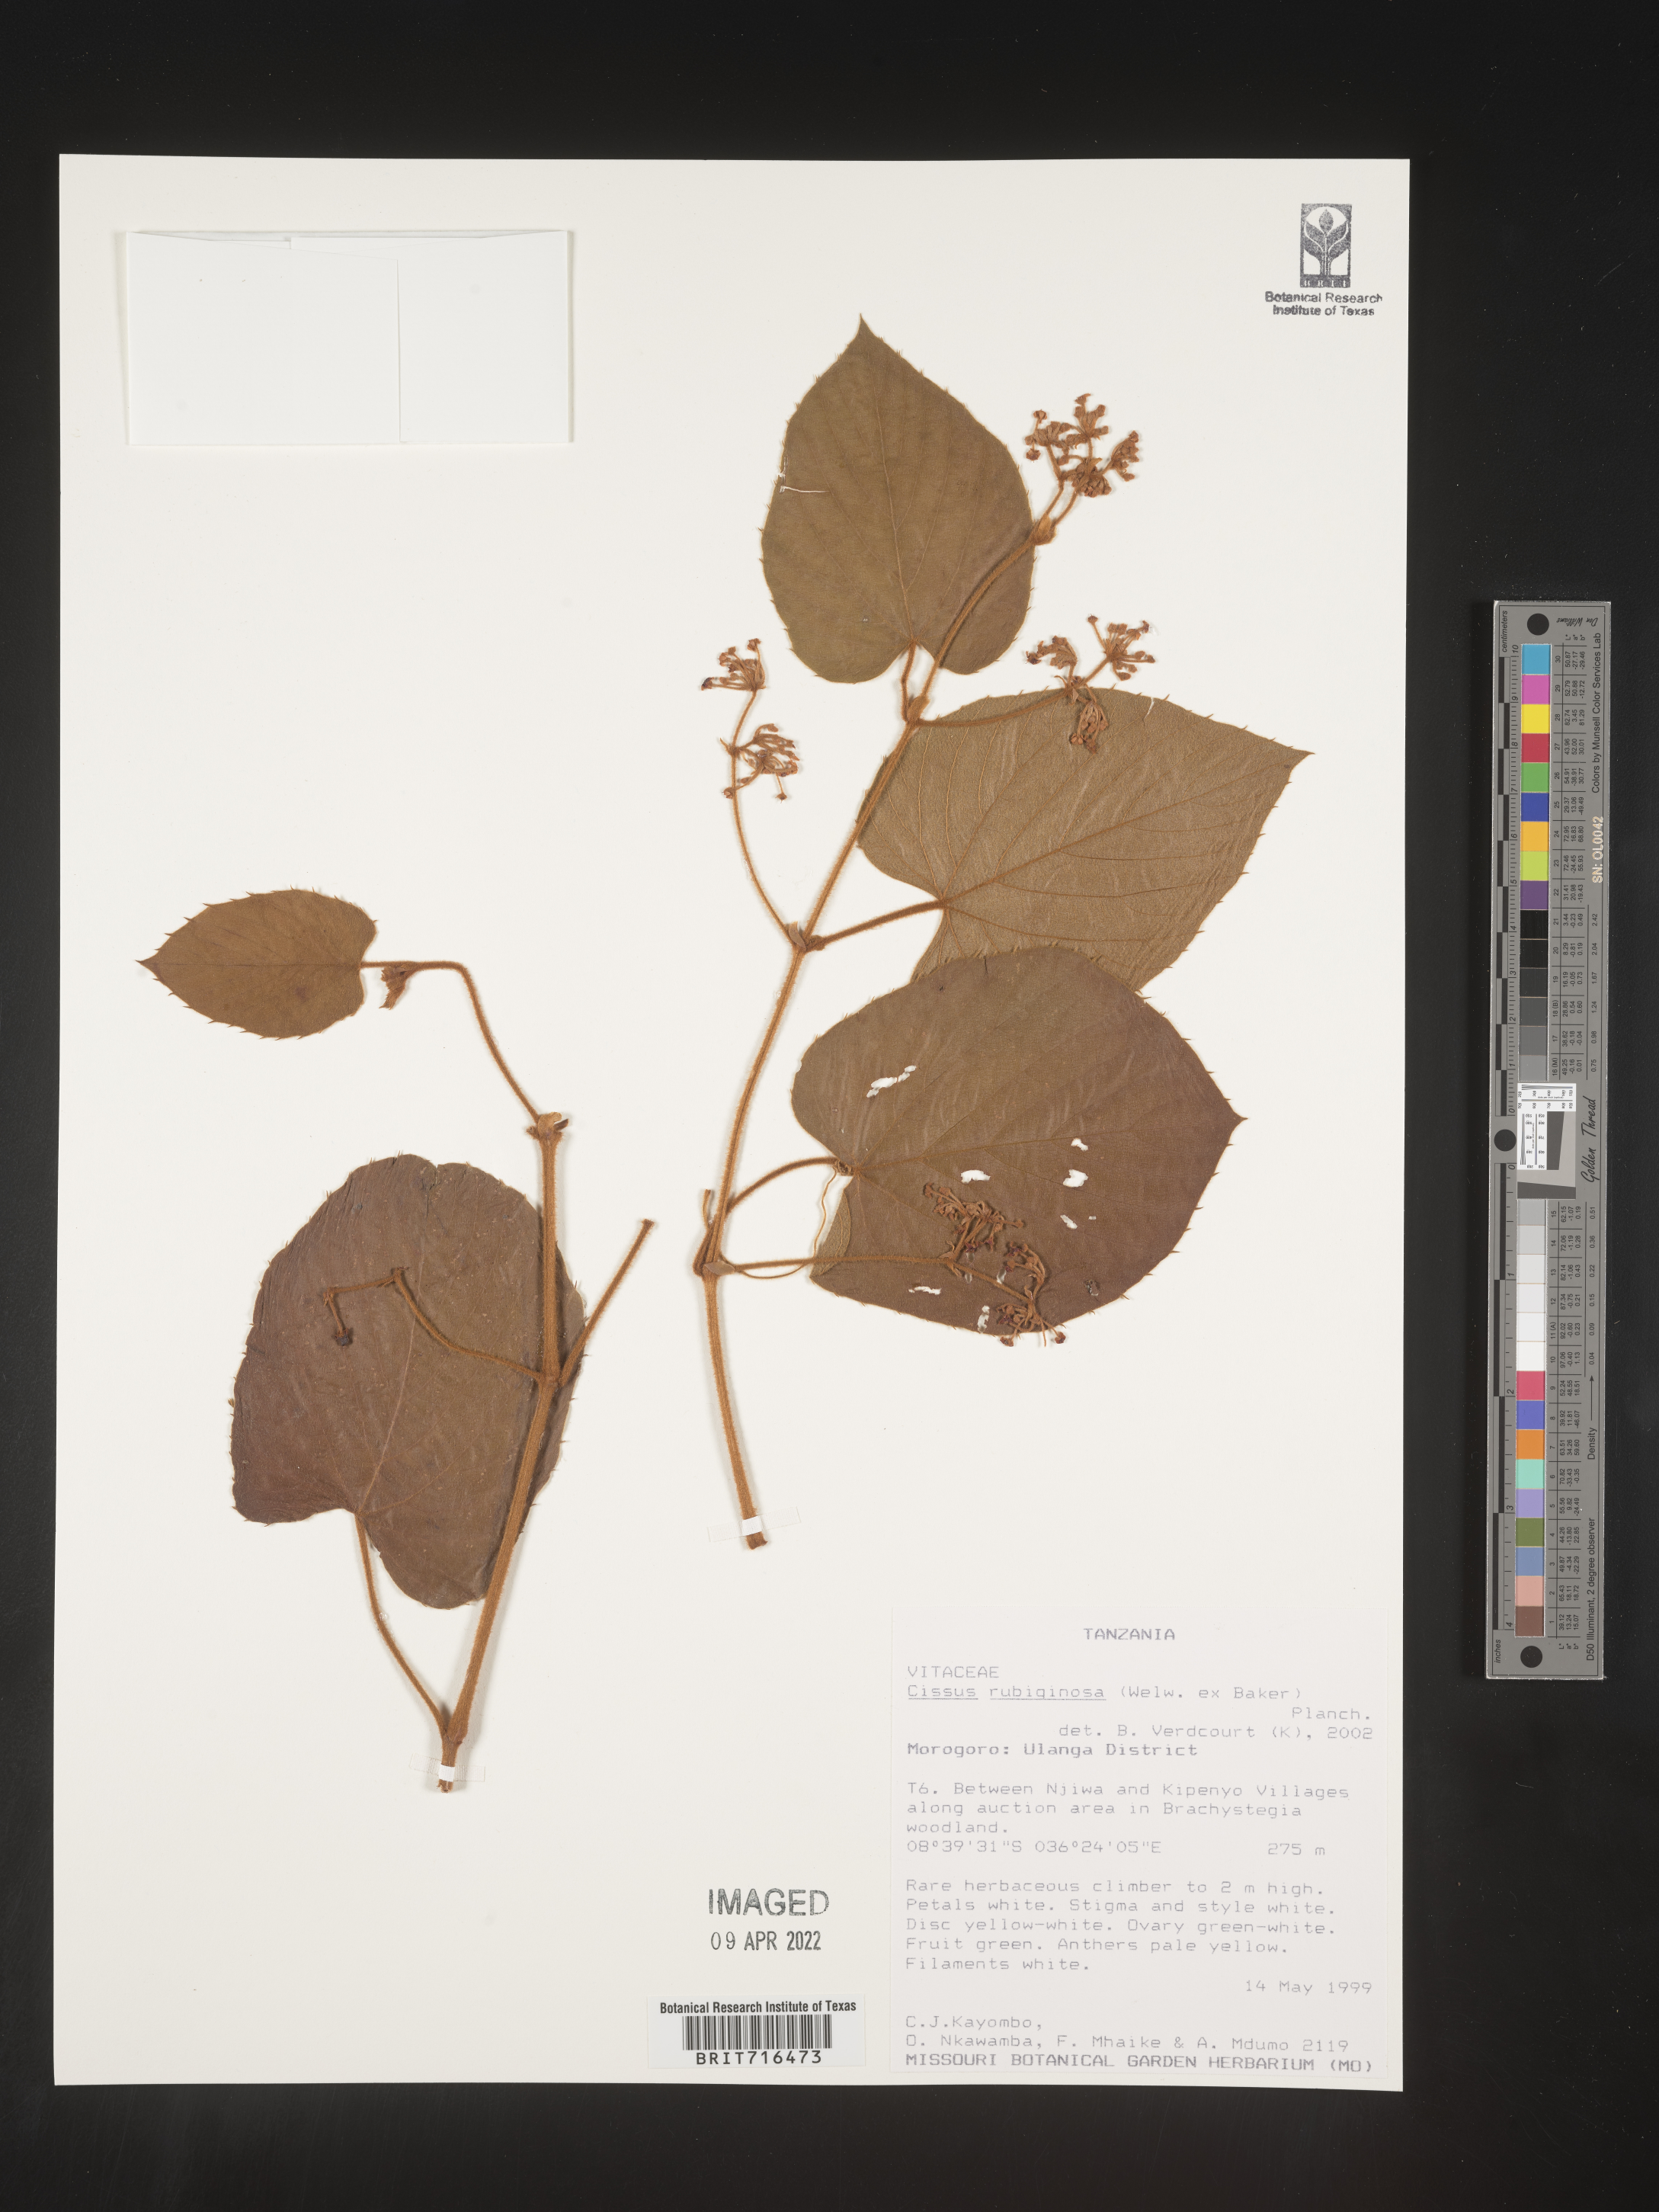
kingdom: Plantae
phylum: Tracheophyta
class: Magnoliopsida
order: Vitales
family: Vitaceae
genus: Cissus
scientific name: Cissus
